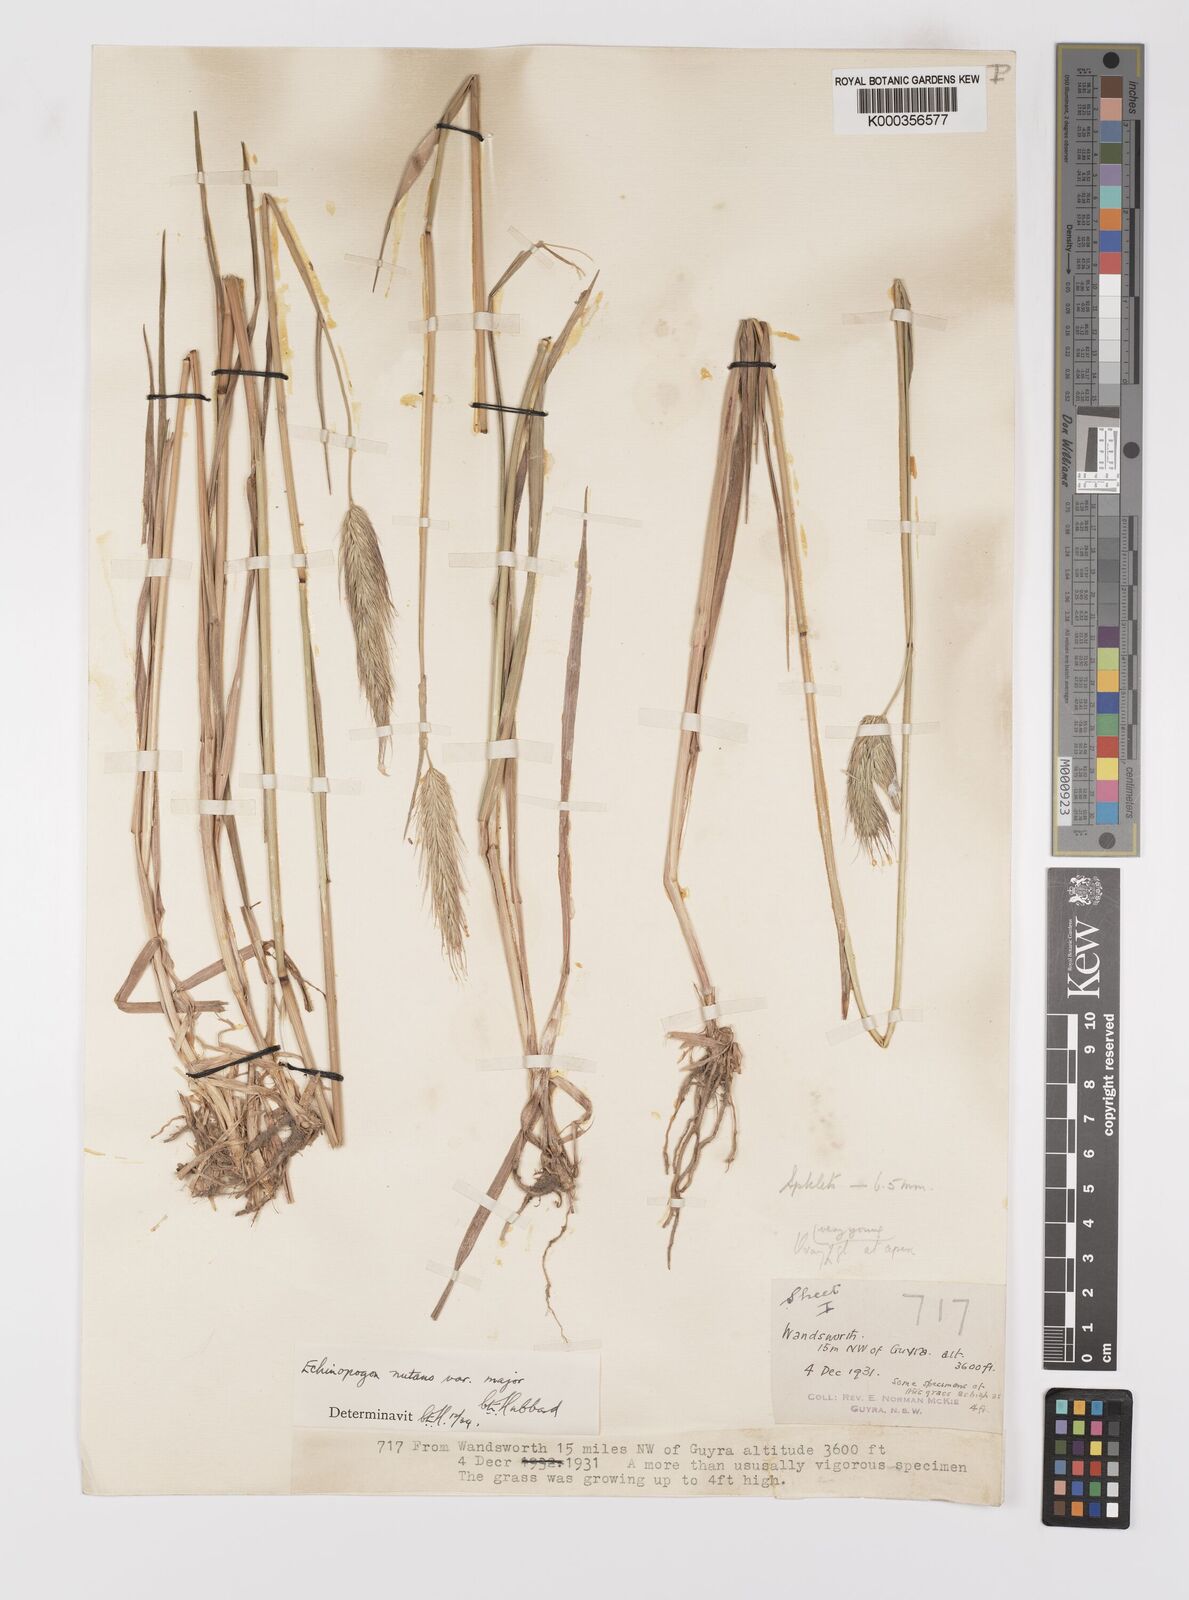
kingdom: Plantae
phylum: Tracheophyta
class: Liliopsida
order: Poales
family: Poaceae
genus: Echinopogon
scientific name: Echinopogon nutans
